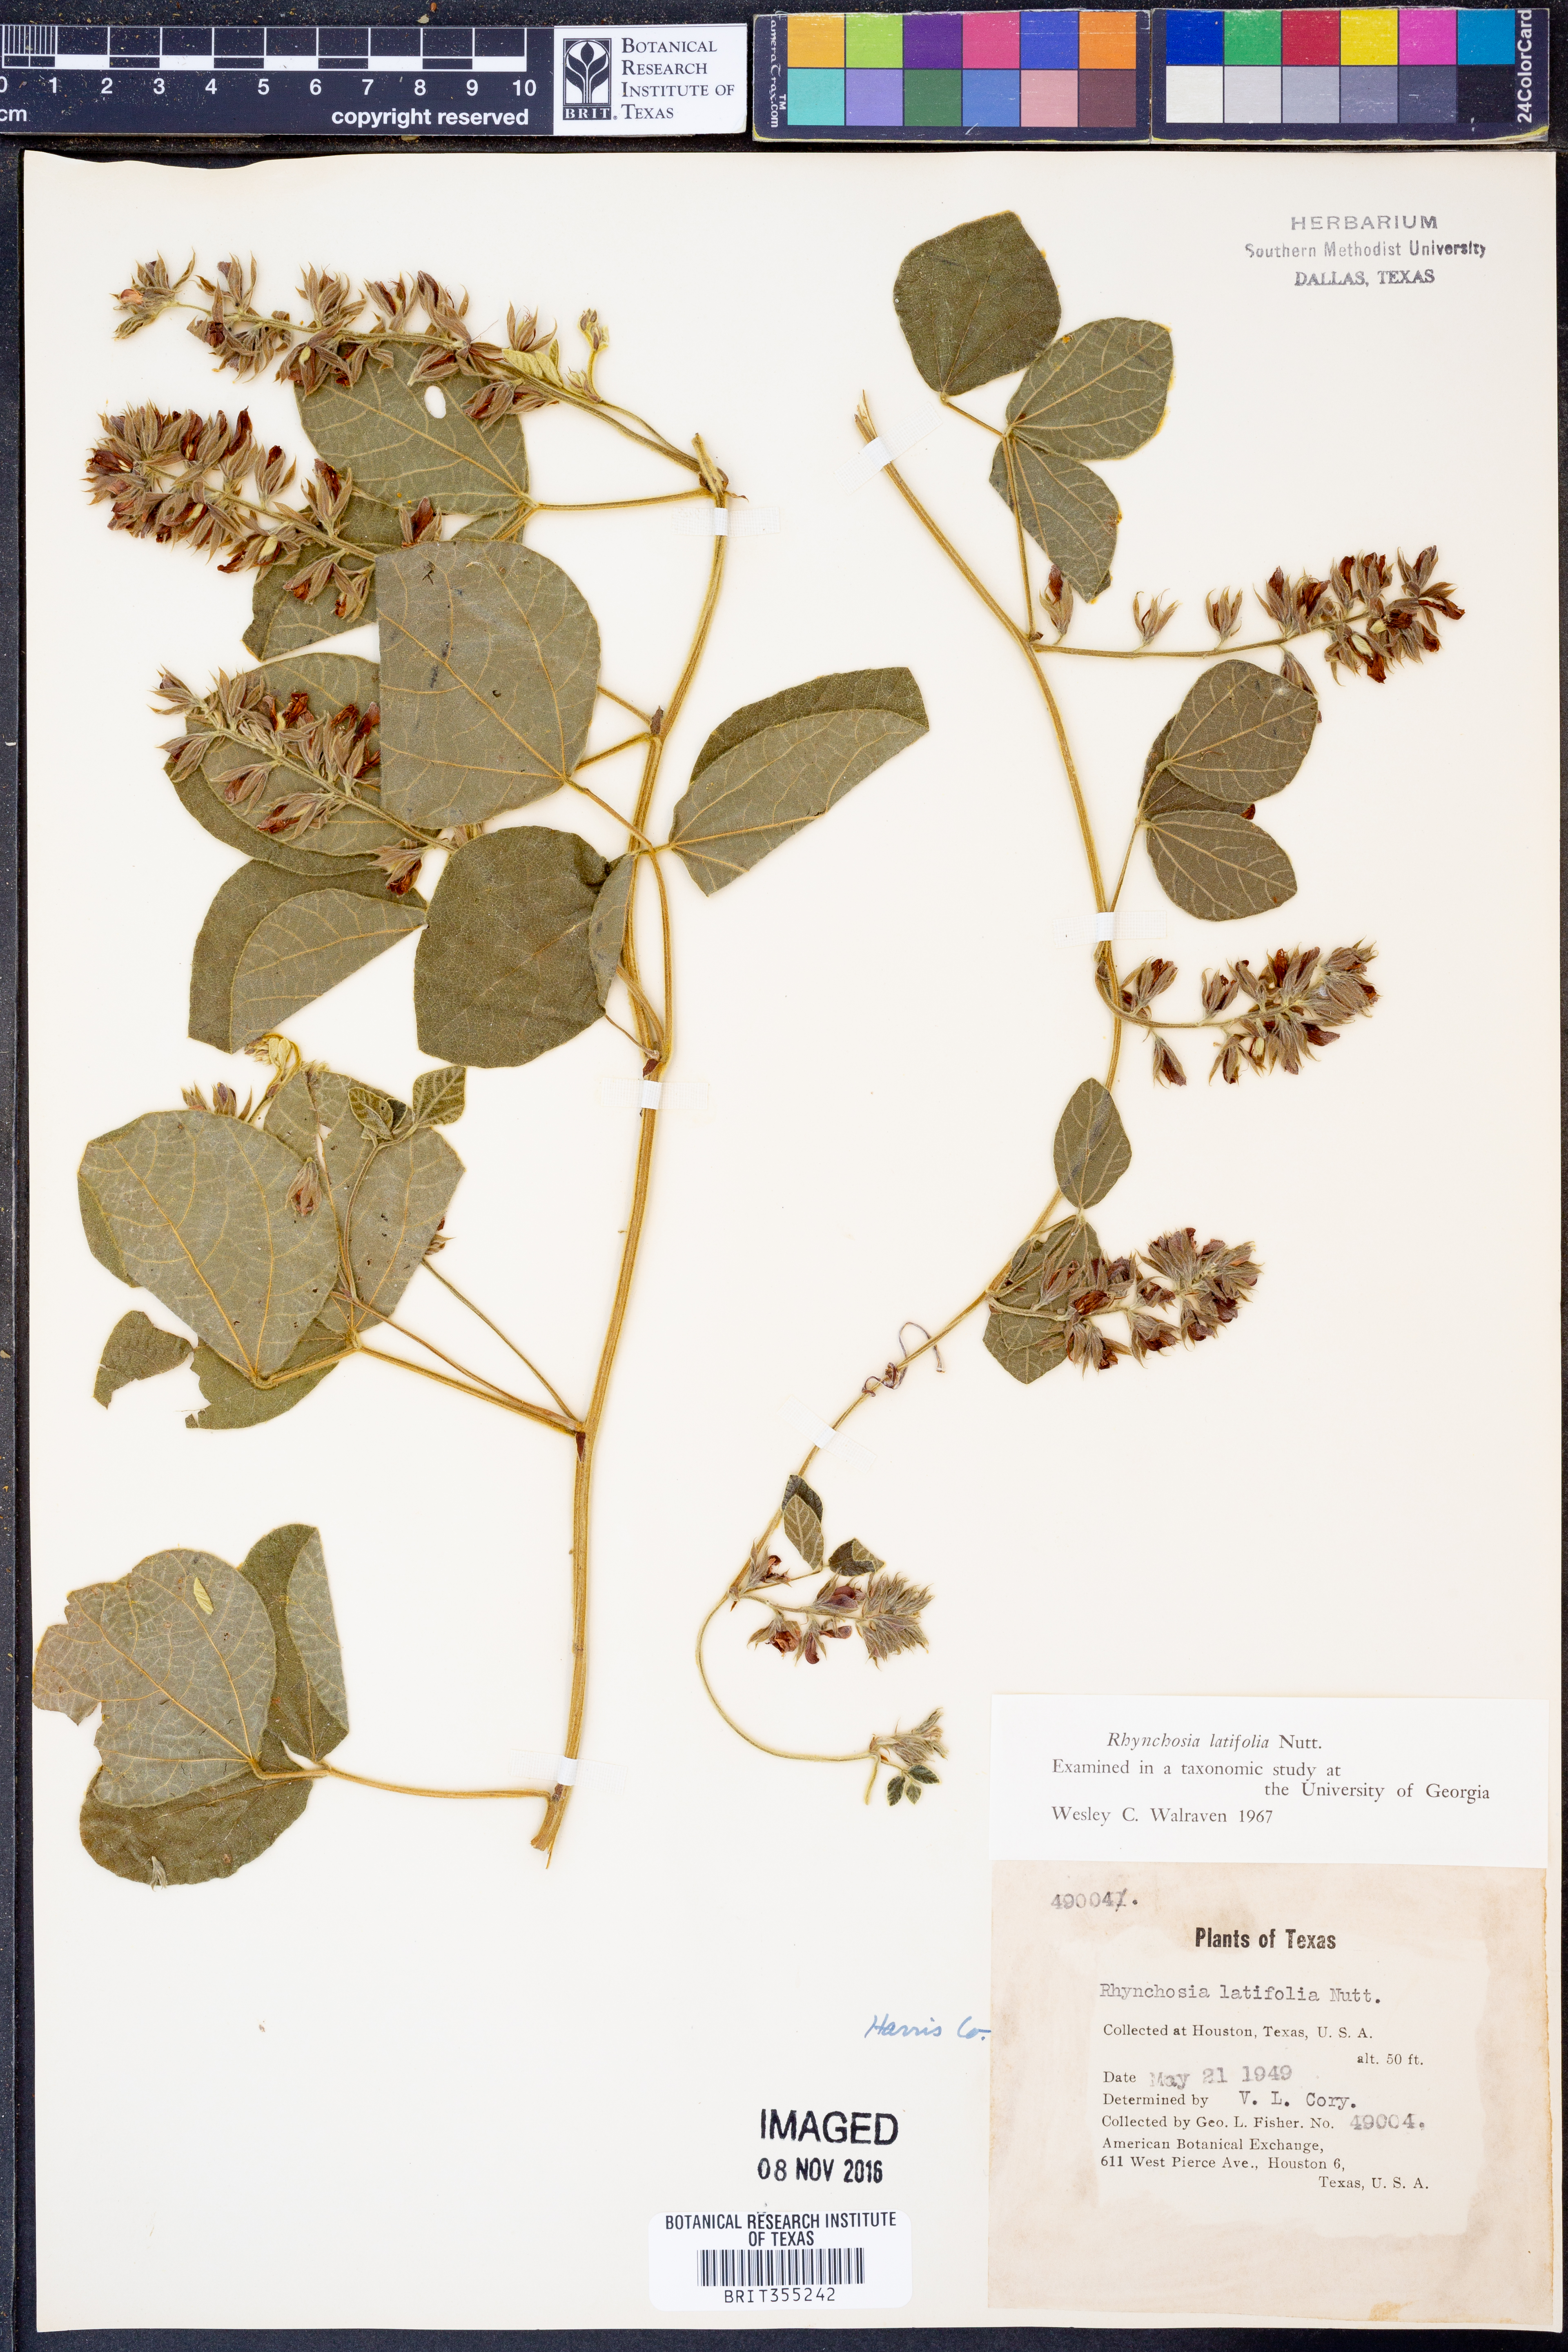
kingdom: Plantae
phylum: Tracheophyta
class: Magnoliopsida
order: Fabales
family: Fabaceae
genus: Rhynchosia
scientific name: Rhynchosia latifolia
